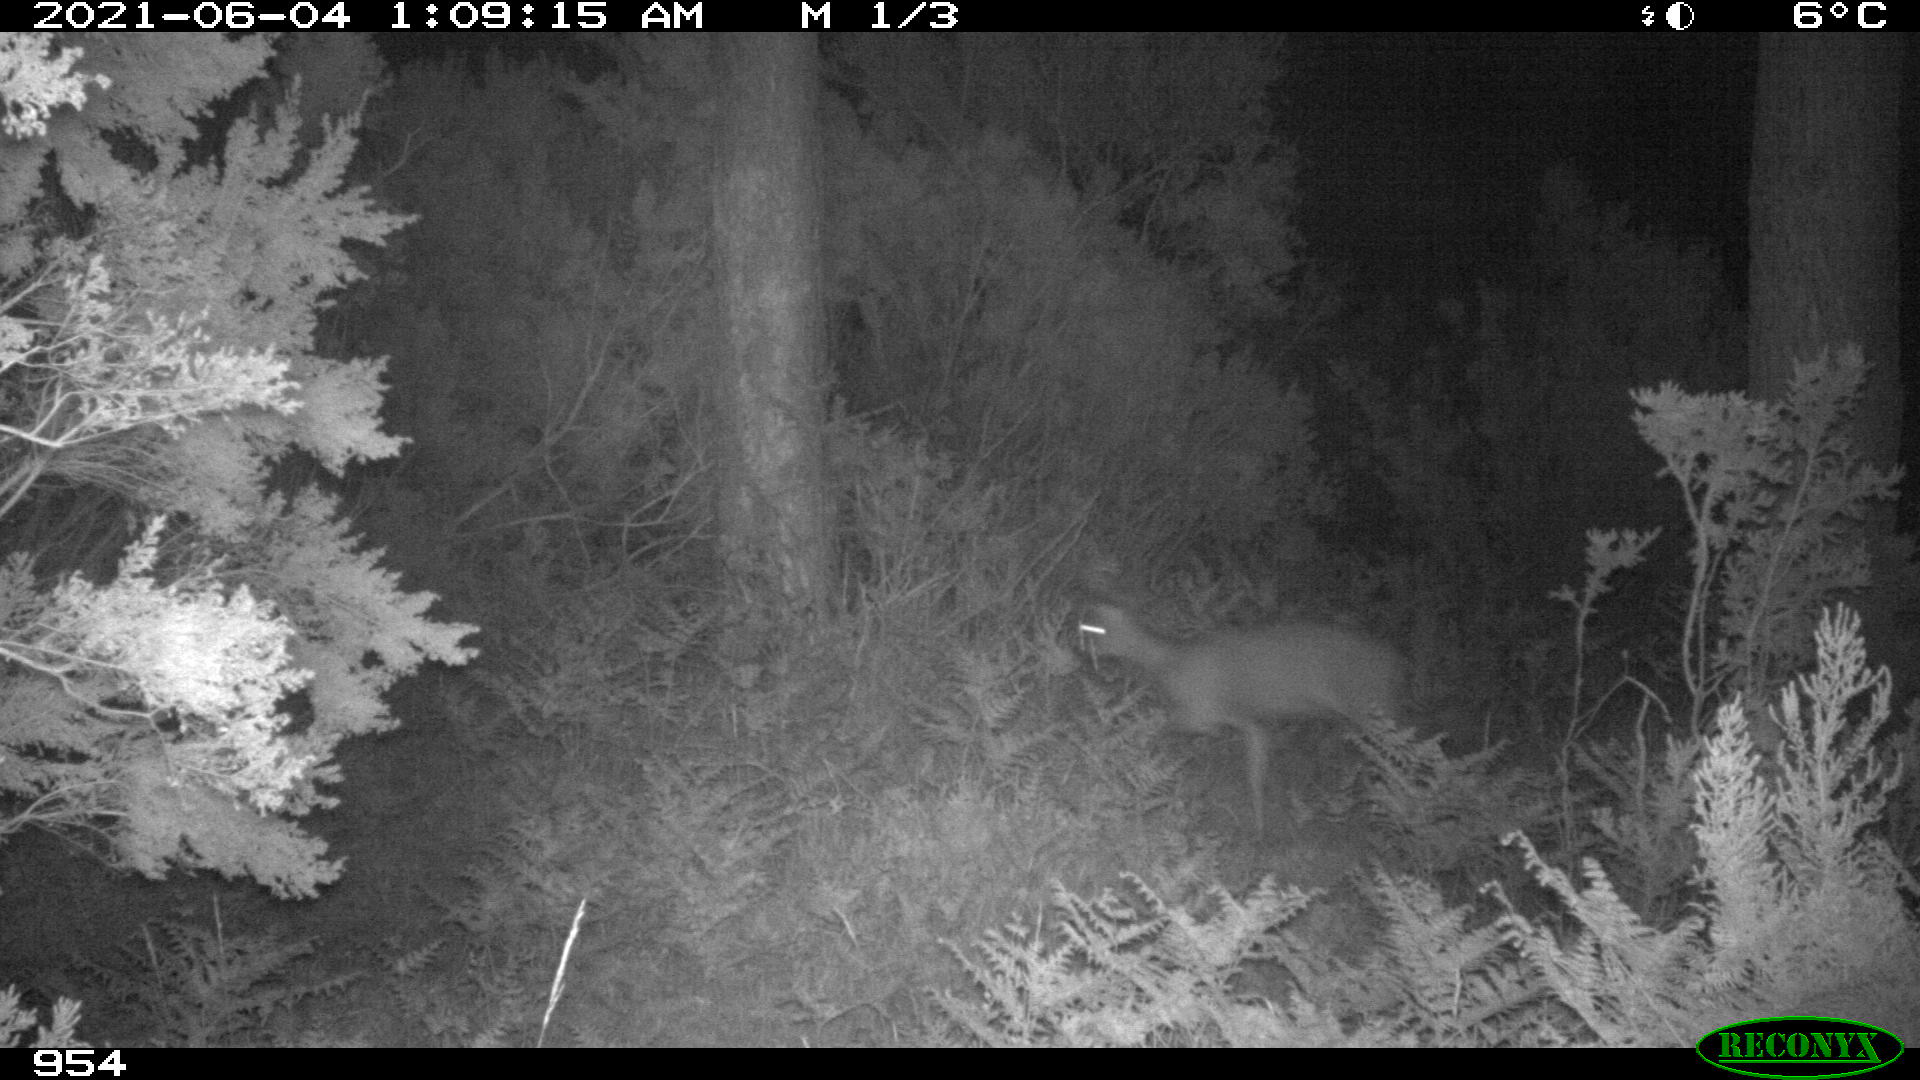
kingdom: Animalia
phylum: Chordata
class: Mammalia
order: Artiodactyla
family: Cervidae
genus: Capreolus
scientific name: Capreolus capreolus
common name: Western roe deer
